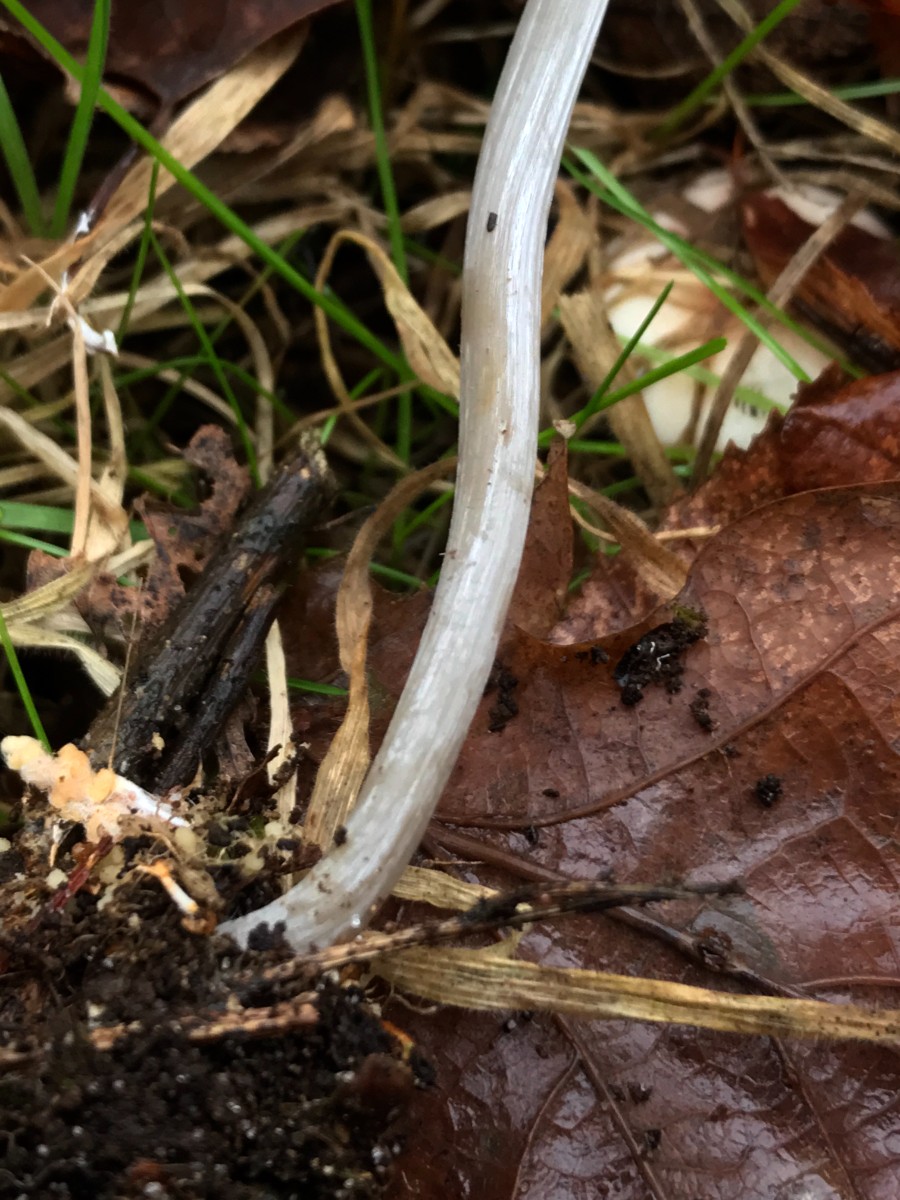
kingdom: Fungi
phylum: Basidiomycota
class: Agaricomycetes
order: Agaricales
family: Mycenaceae
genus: Mycena
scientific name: Mycena polygramma
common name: mangestribet huesvamp
